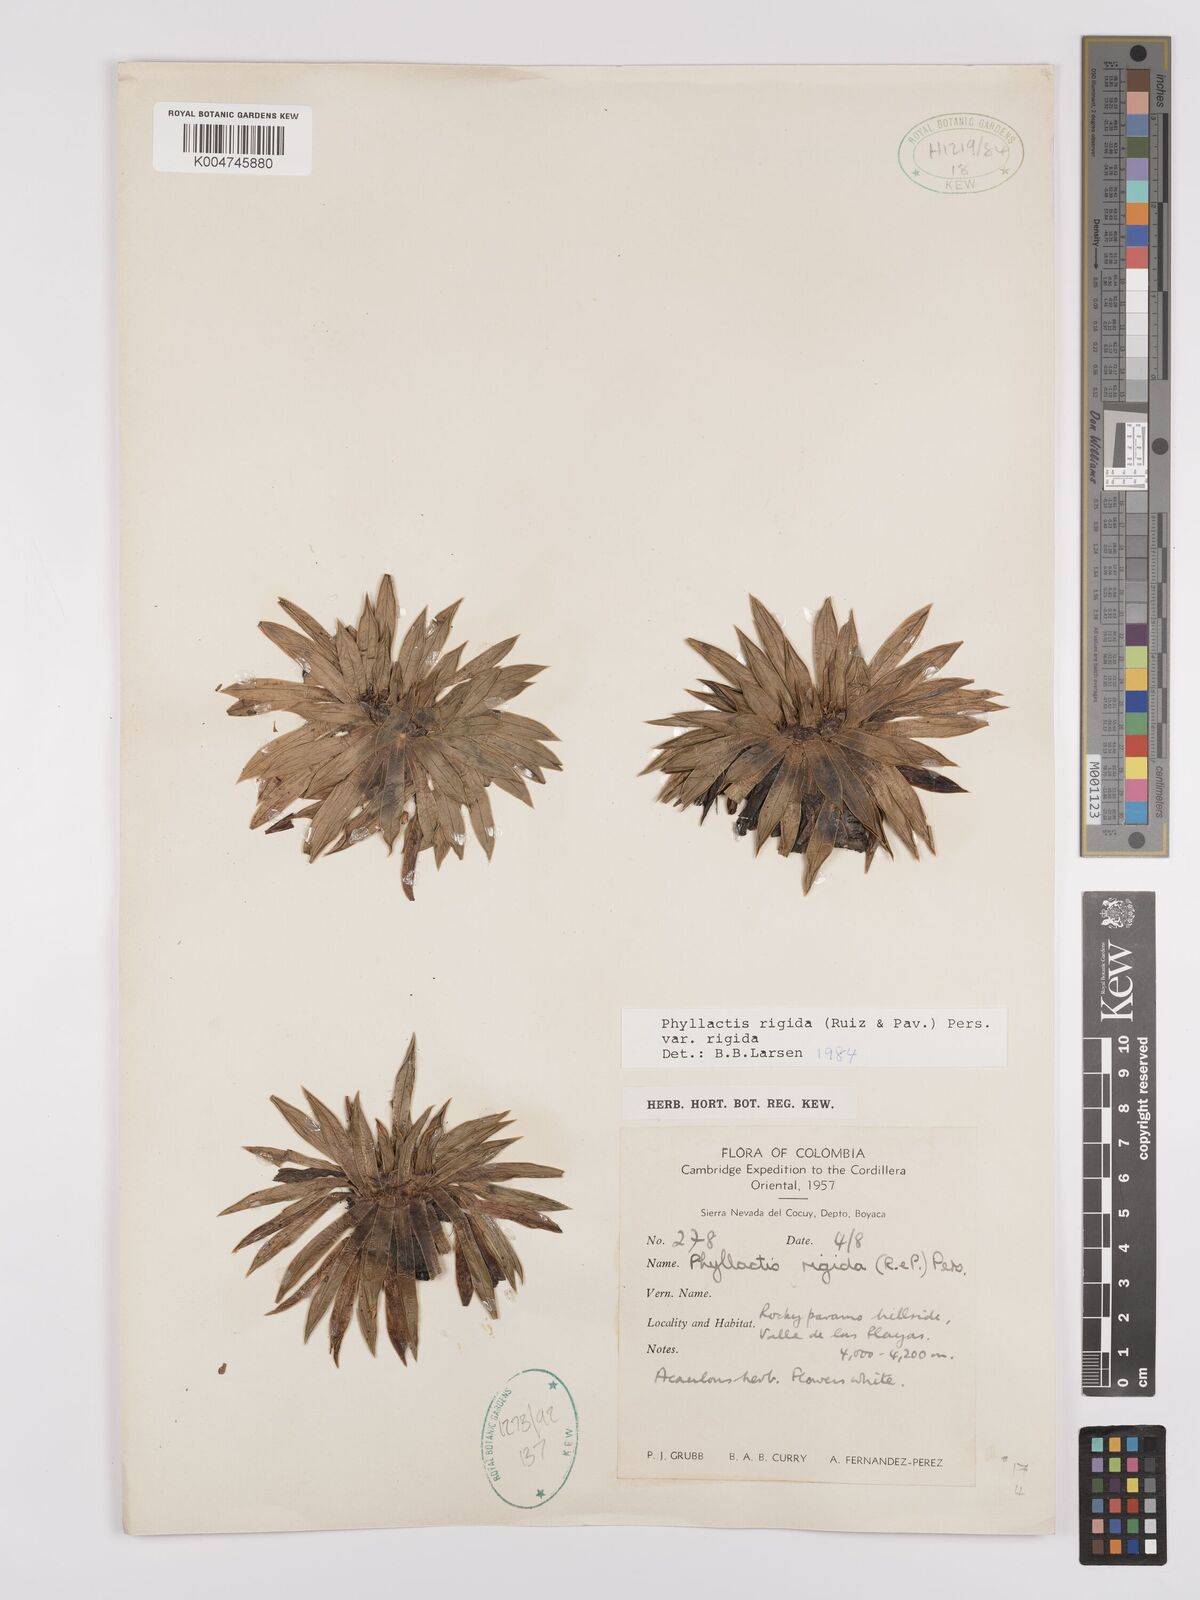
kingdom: Plantae
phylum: Tracheophyta
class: Magnoliopsida
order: Dipsacales
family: Caprifoliaceae
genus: Valeriana
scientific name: Valeriana rigida
